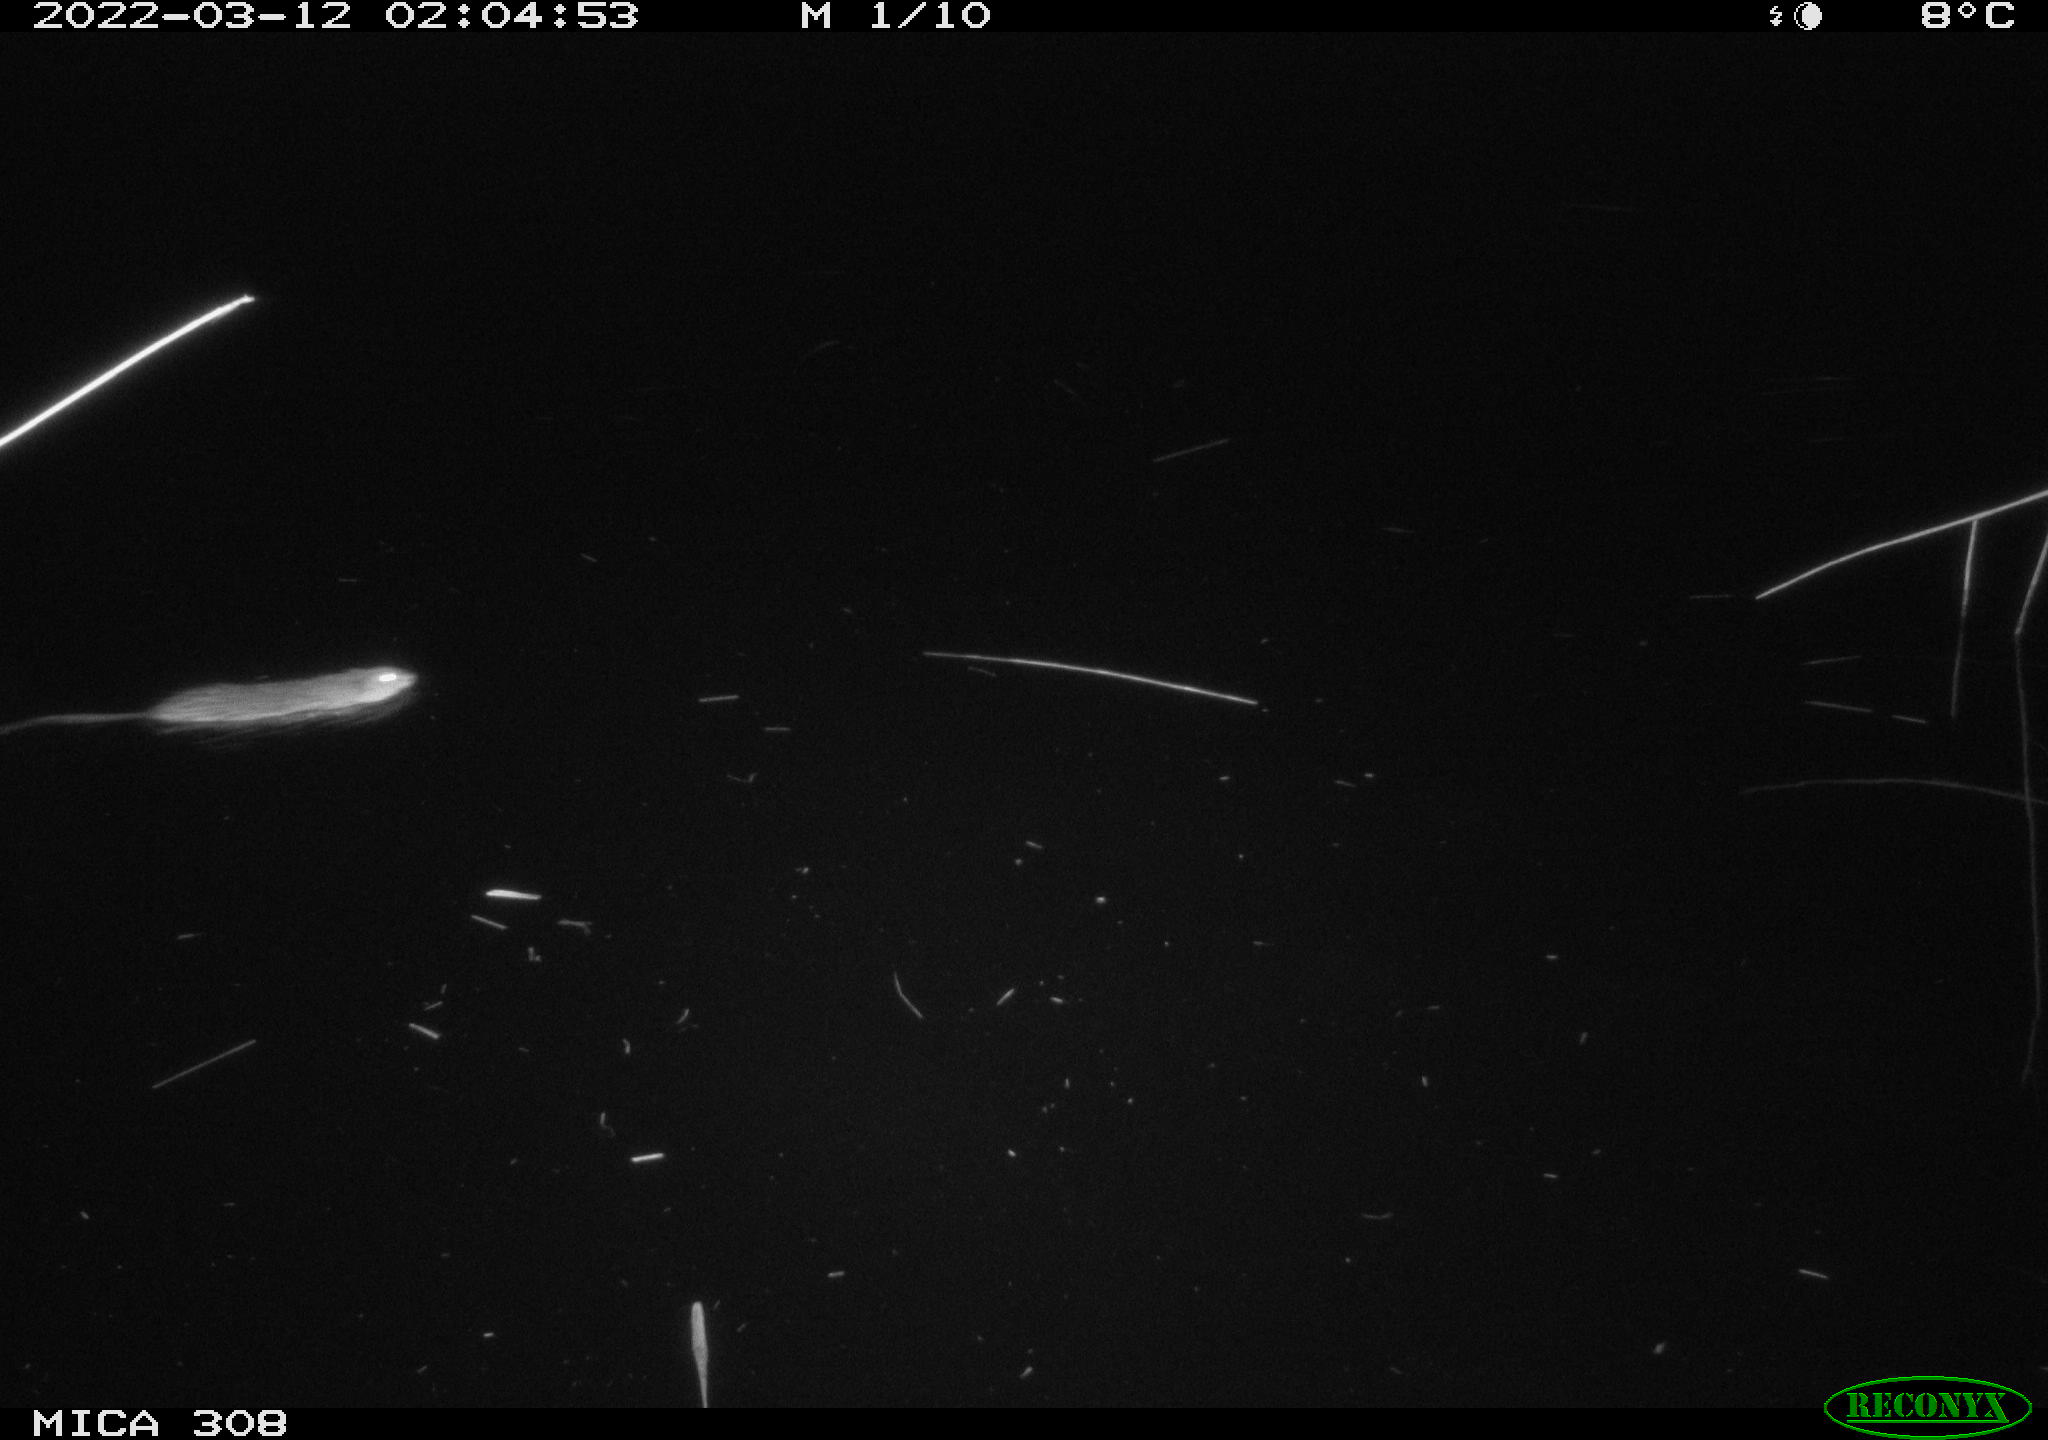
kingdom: Animalia
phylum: Chordata
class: Mammalia
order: Rodentia
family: Cricetidae
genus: Ondatra
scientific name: Ondatra zibethicus
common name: Muskrat
